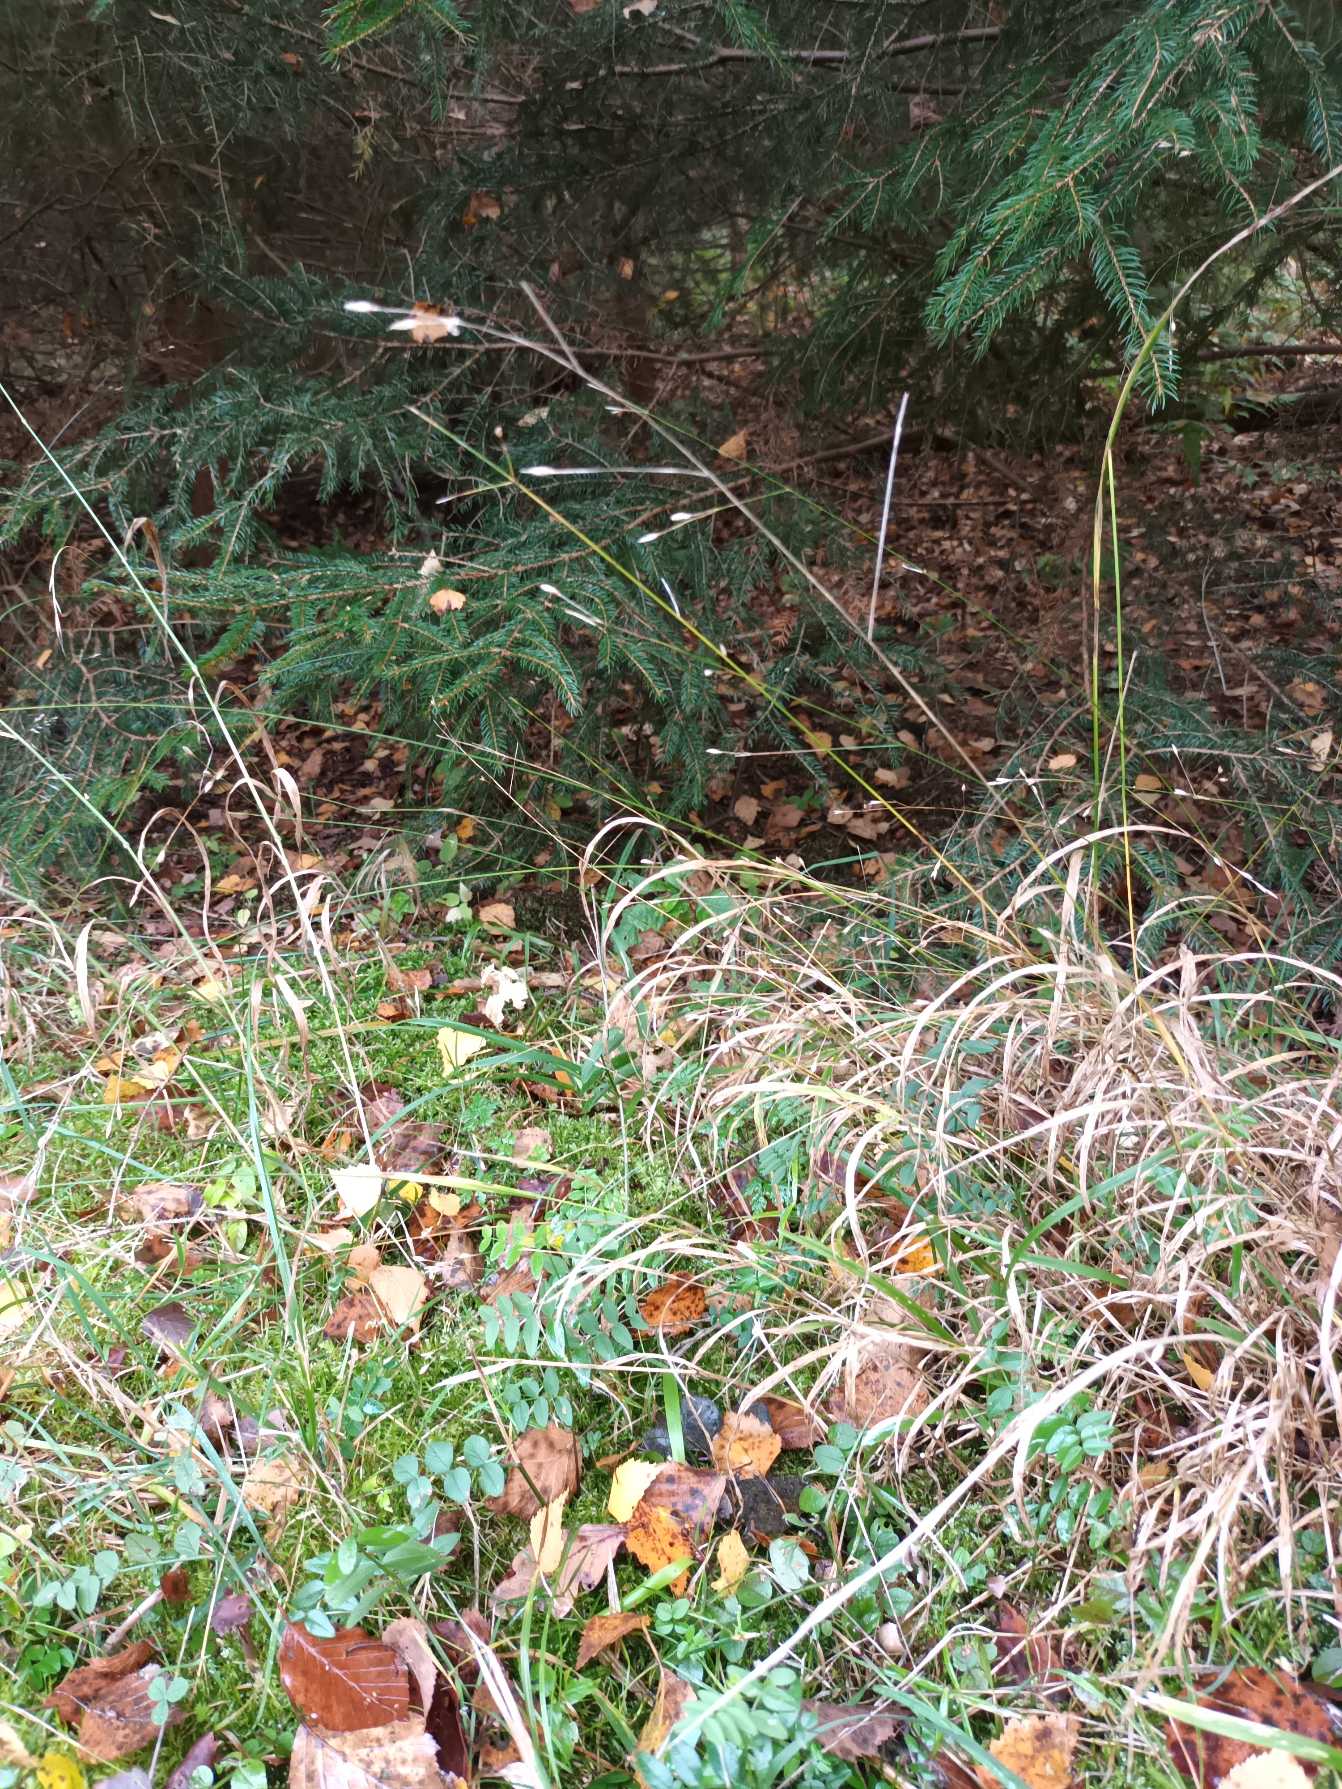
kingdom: Plantae
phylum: Tracheophyta
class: Liliopsida
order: Poales
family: Poaceae
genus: Melica
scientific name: Melica uniflora
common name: Enblomstret flitteraks
